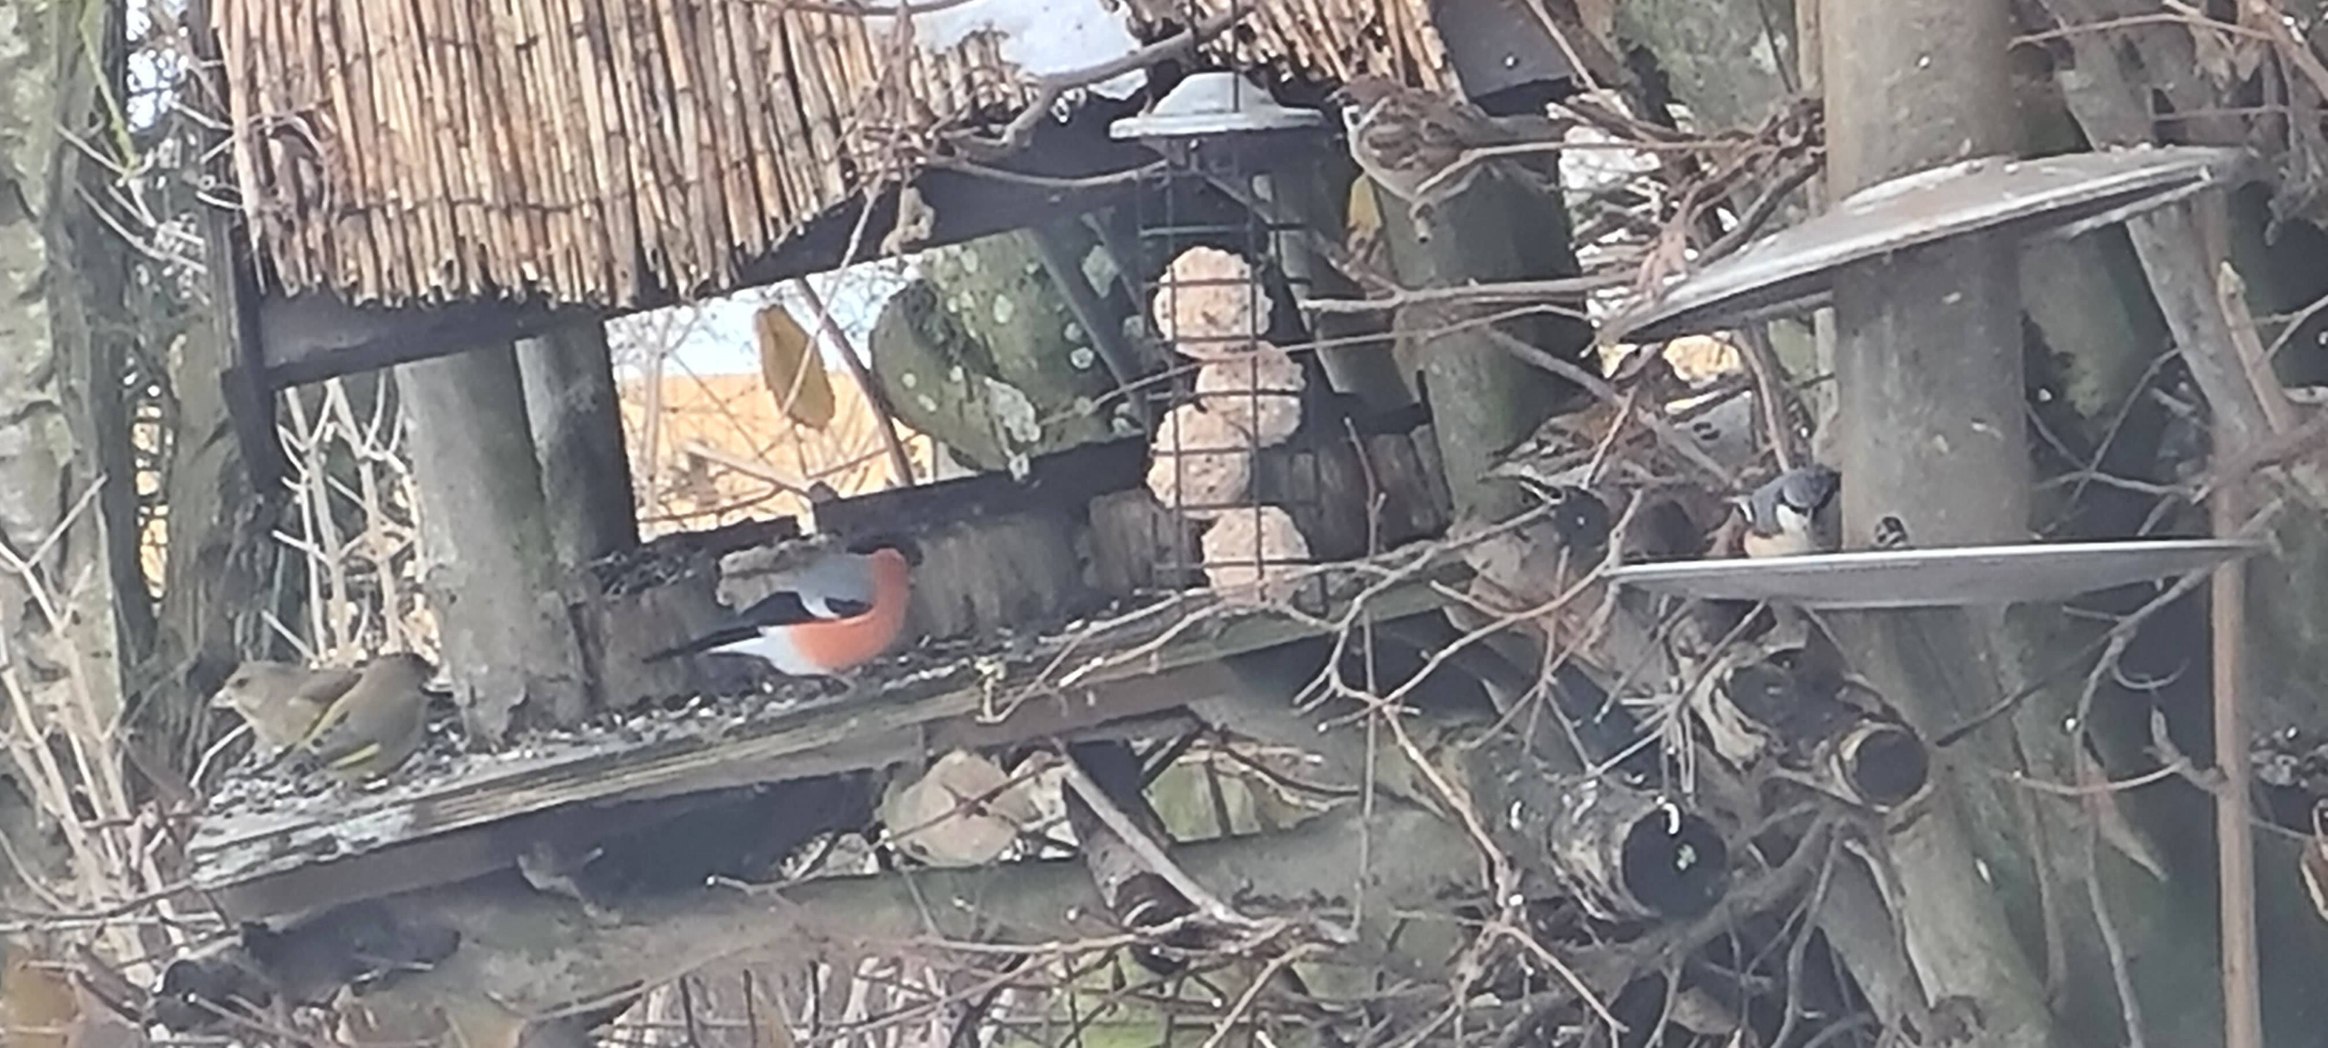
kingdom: Animalia
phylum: Chordata
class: Aves
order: Passeriformes
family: Fringillidae
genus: Pyrrhula
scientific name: Pyrrhula pyrrhula
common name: Dompap
